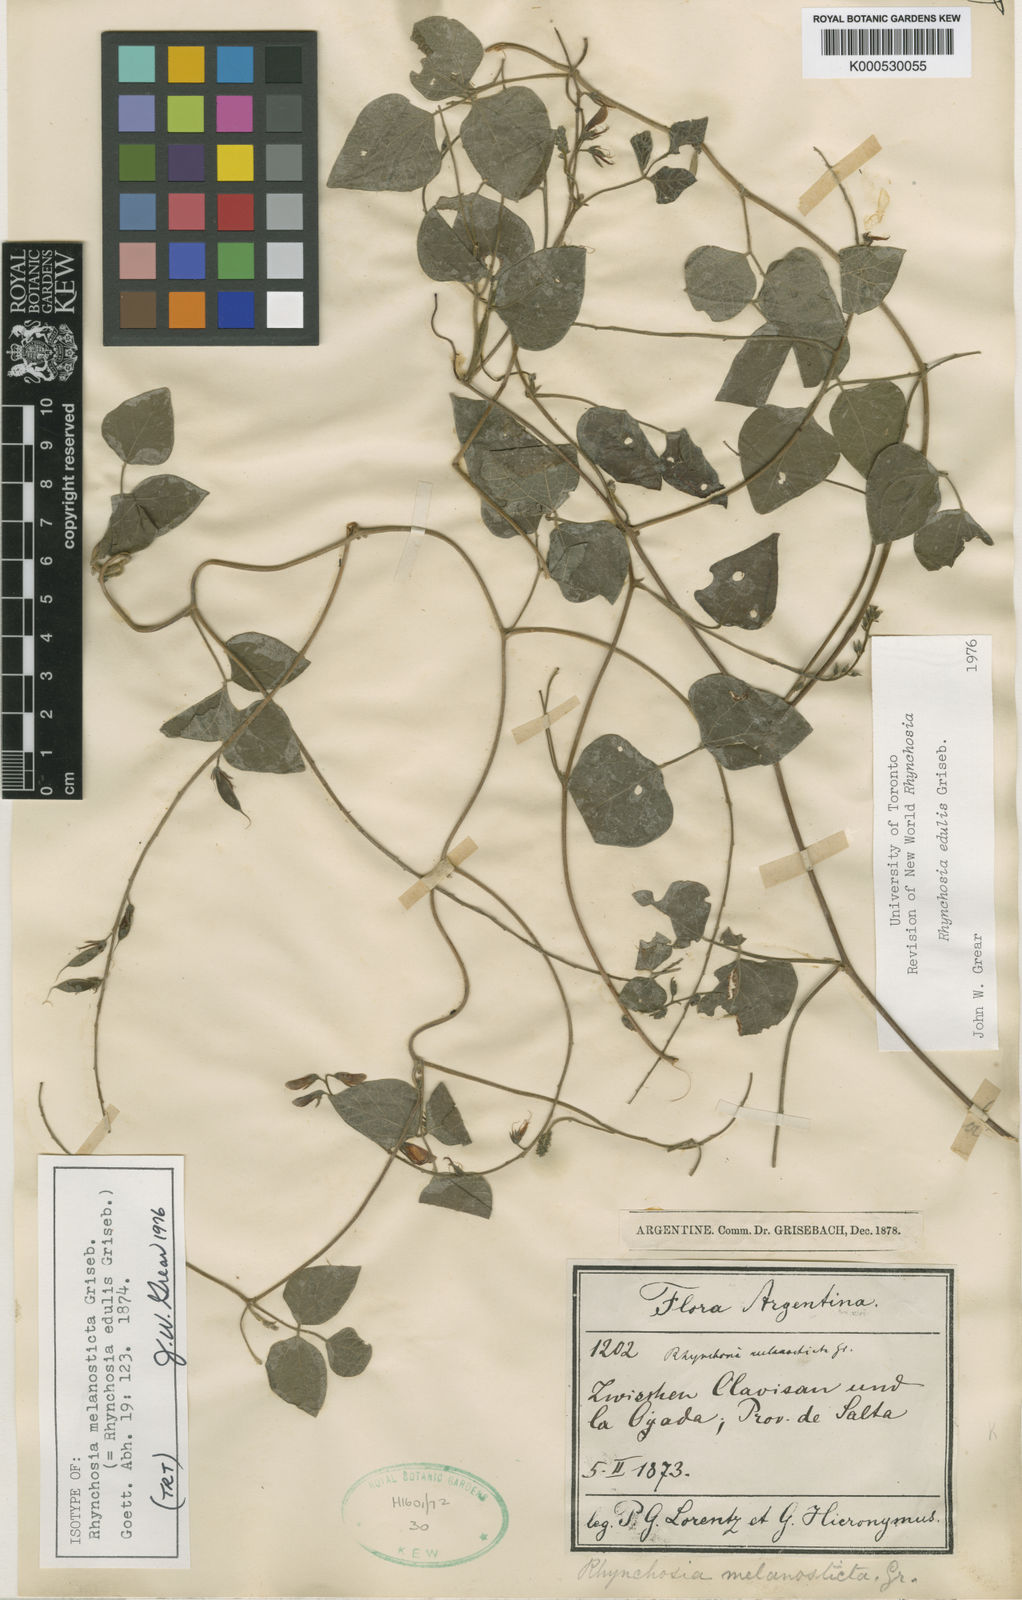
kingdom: Plantae
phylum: Tracheophyta
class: Magnoliopsida
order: Fabales
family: Fabaceae
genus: Rhynchosia
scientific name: Rhynchosia edulis
